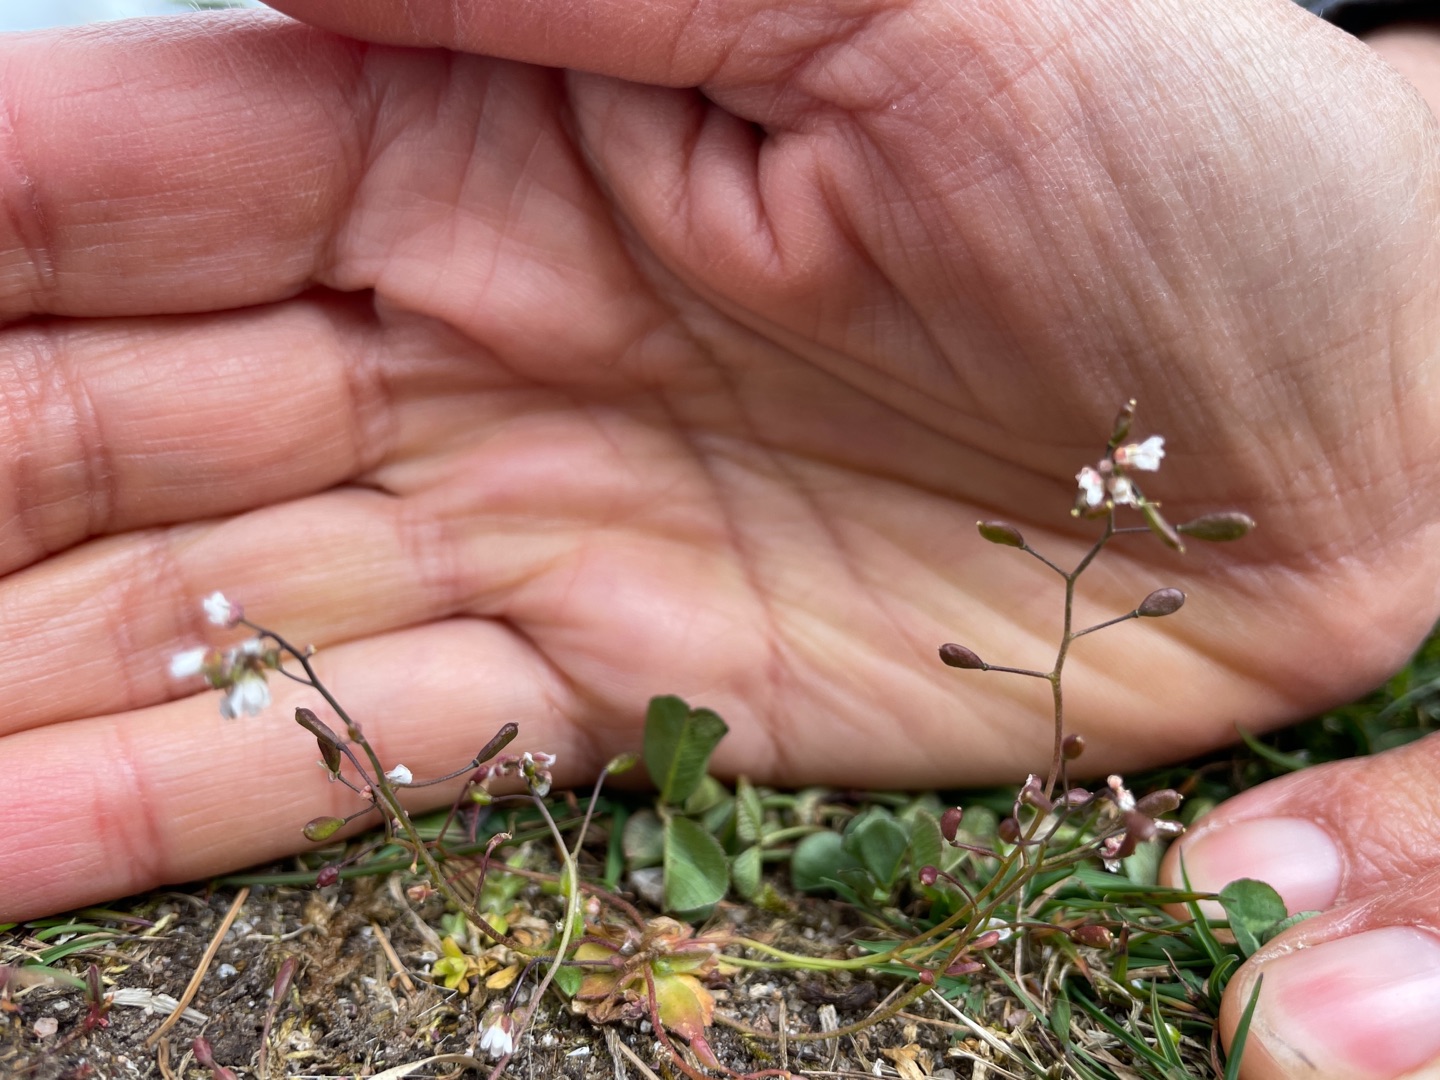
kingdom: Plantae
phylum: Tracheophyta
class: Magnoliopsida
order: Brassicales
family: Brassicaceae
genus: Draba
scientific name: Draba verna
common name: Vår-gæslingeblomst
